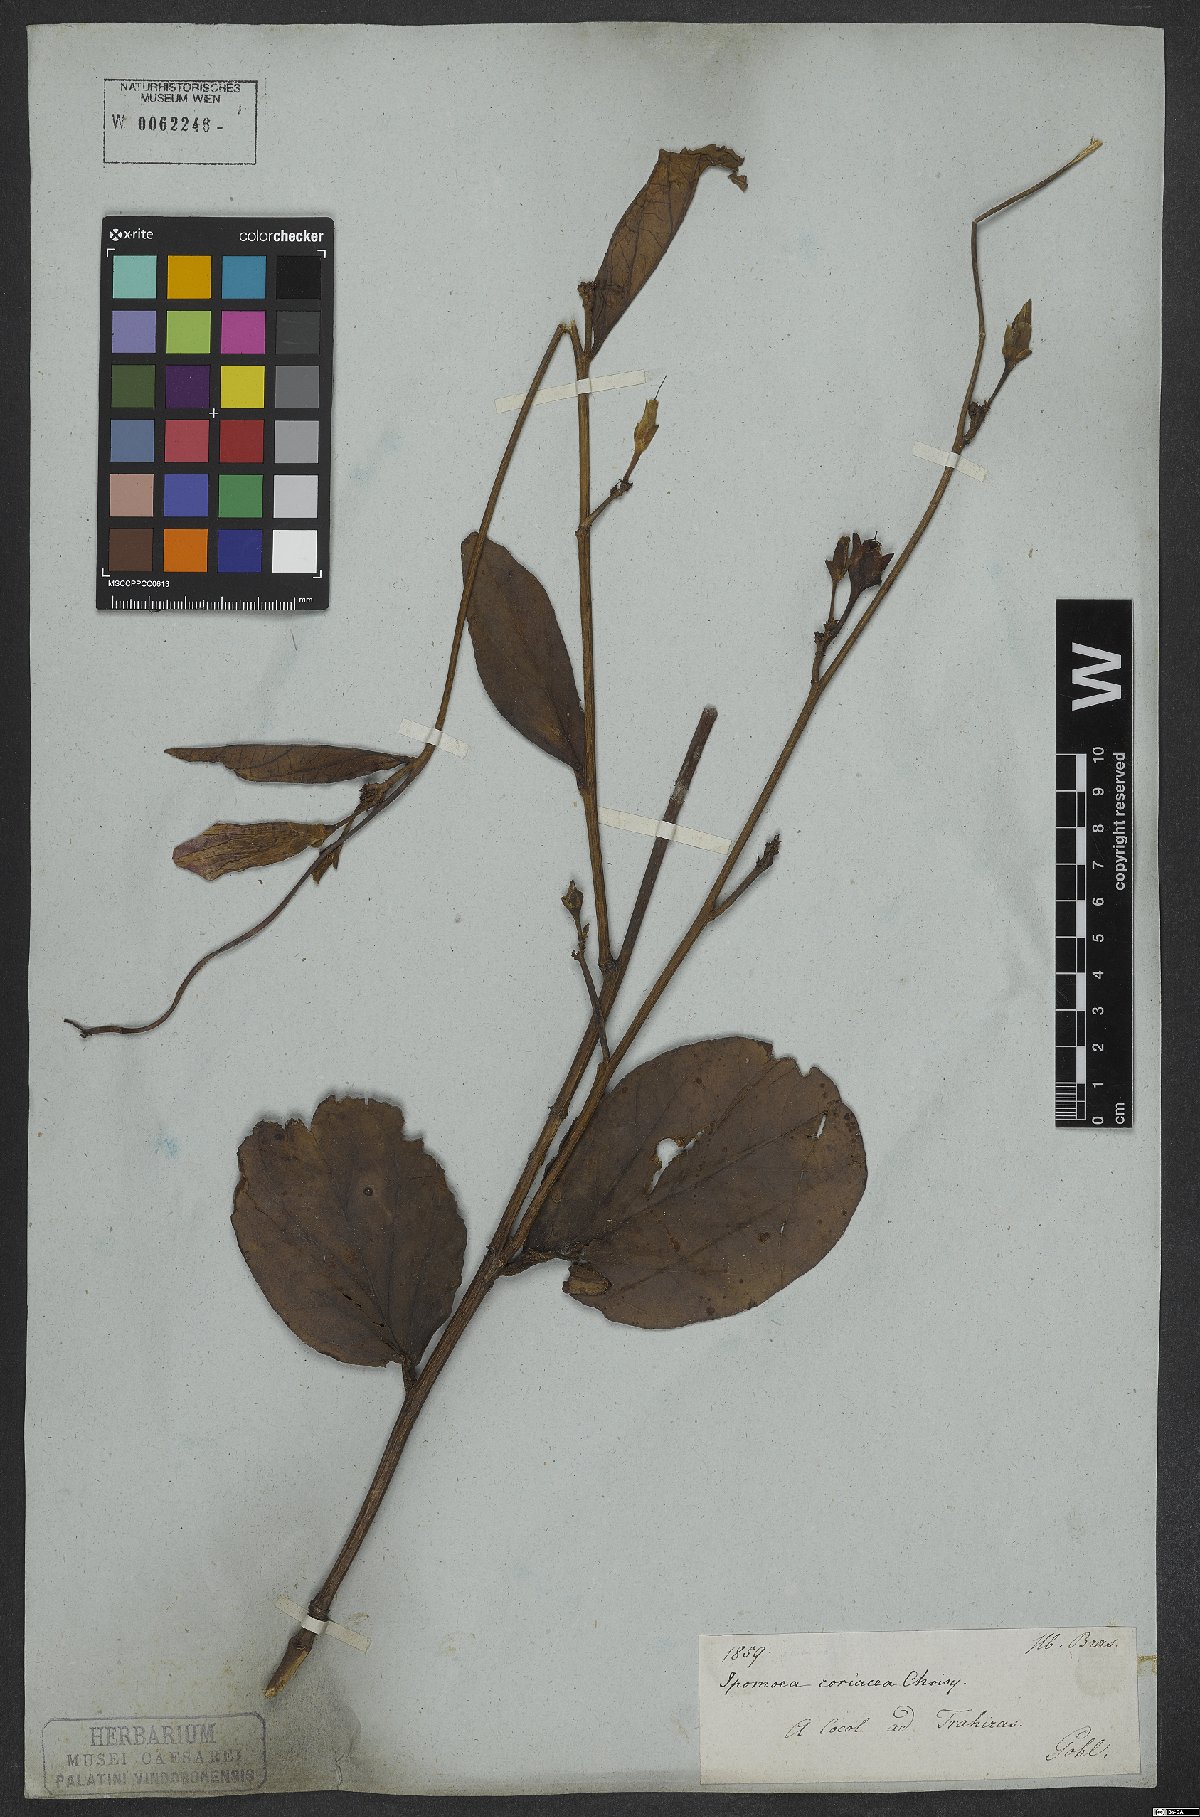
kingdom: Plantae
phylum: Tracheophyta
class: Magnoliopsida
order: Solanales
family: Convolvulaceae
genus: Ipomoea
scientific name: Ipomoea coriacea
